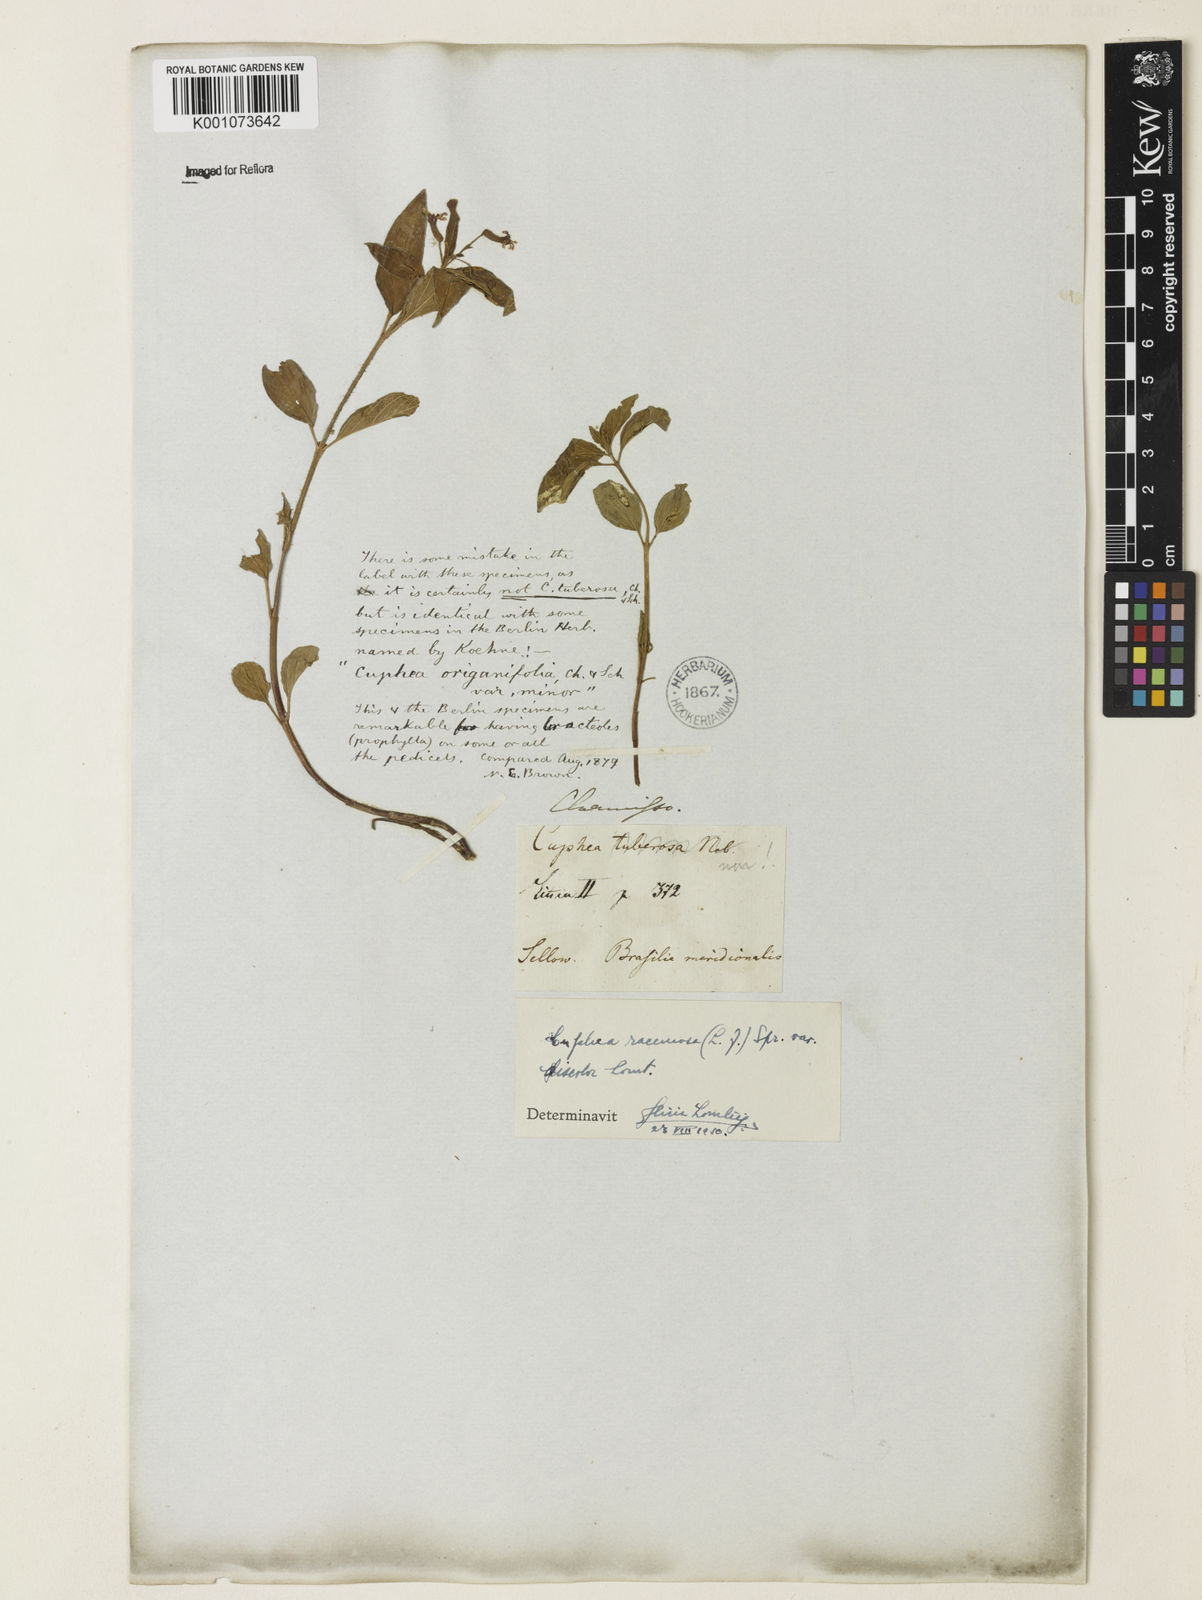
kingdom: Plantae
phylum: Tracheophyta
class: Magnoliopsida
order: Myrtales
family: Lythraceae
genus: Cuphea
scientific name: Cuphea racemosa
